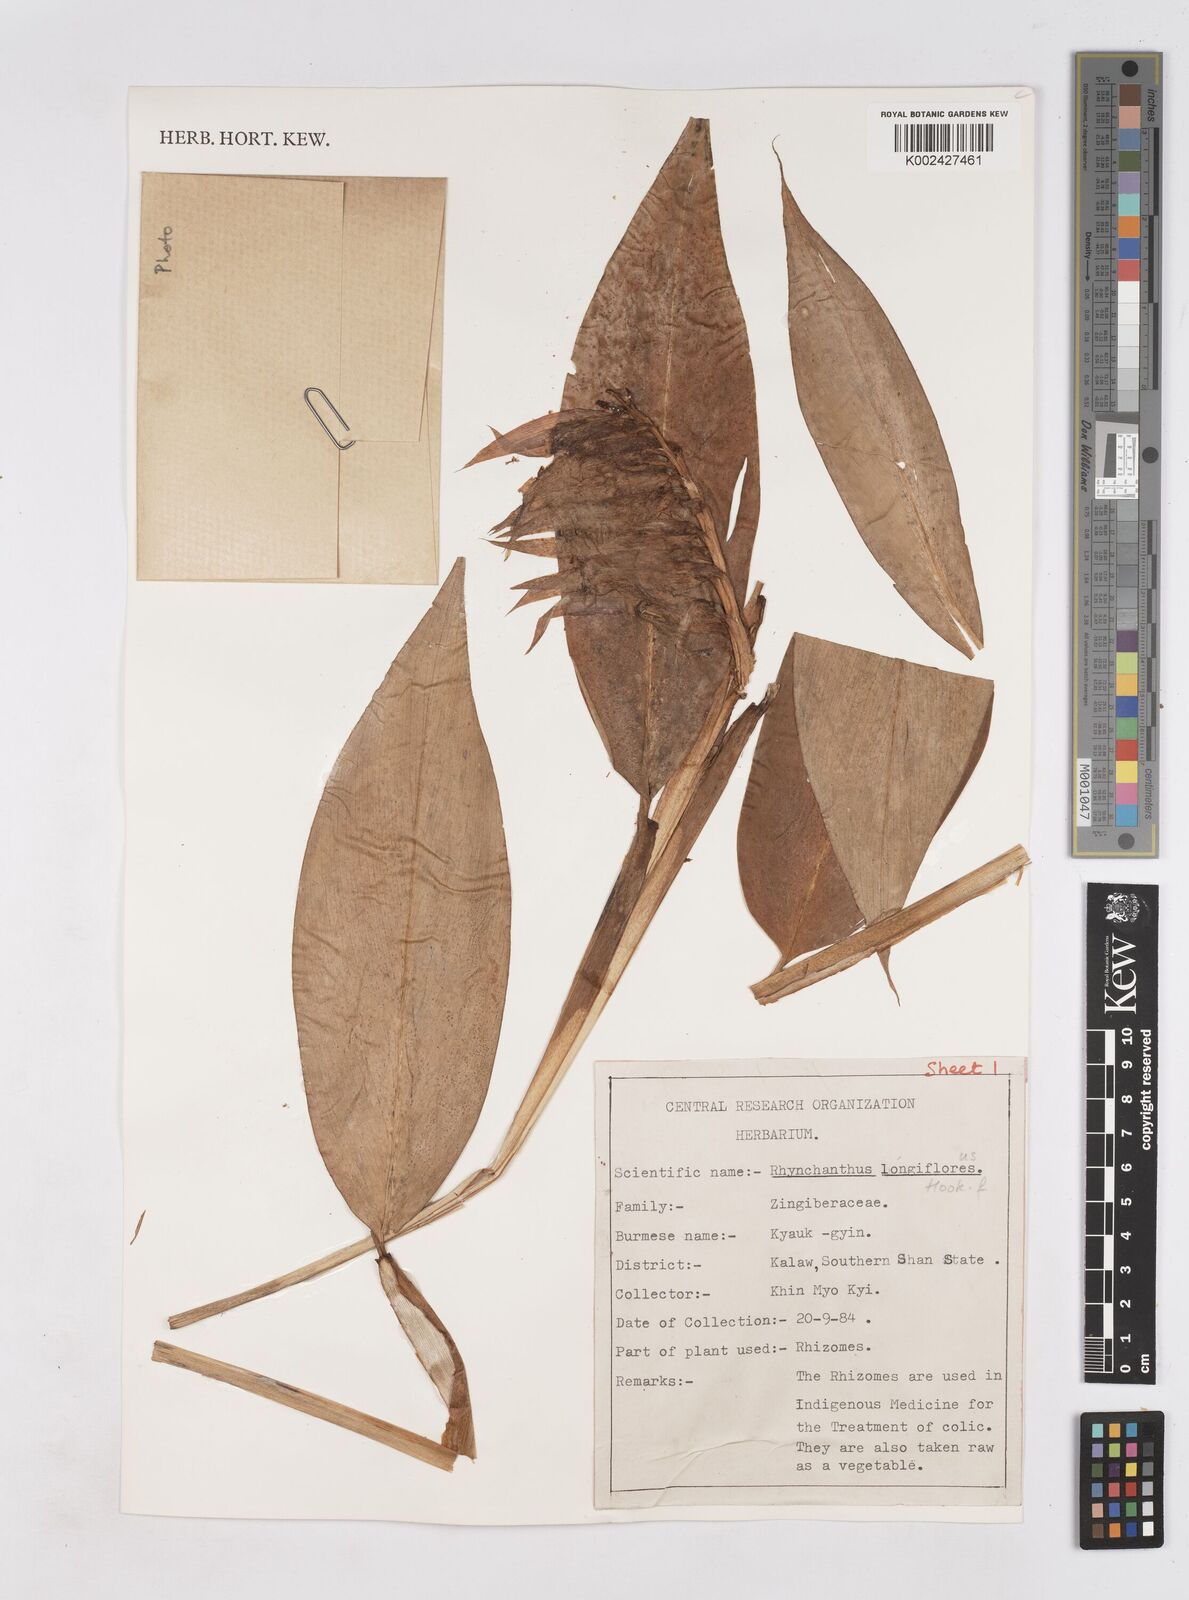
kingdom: Plantae
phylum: Tracheophyta
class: Liliopsida
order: Zingiberales
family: Zingiberaceae
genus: Rhynchanthus
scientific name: Rhynchanthus longiflorus
